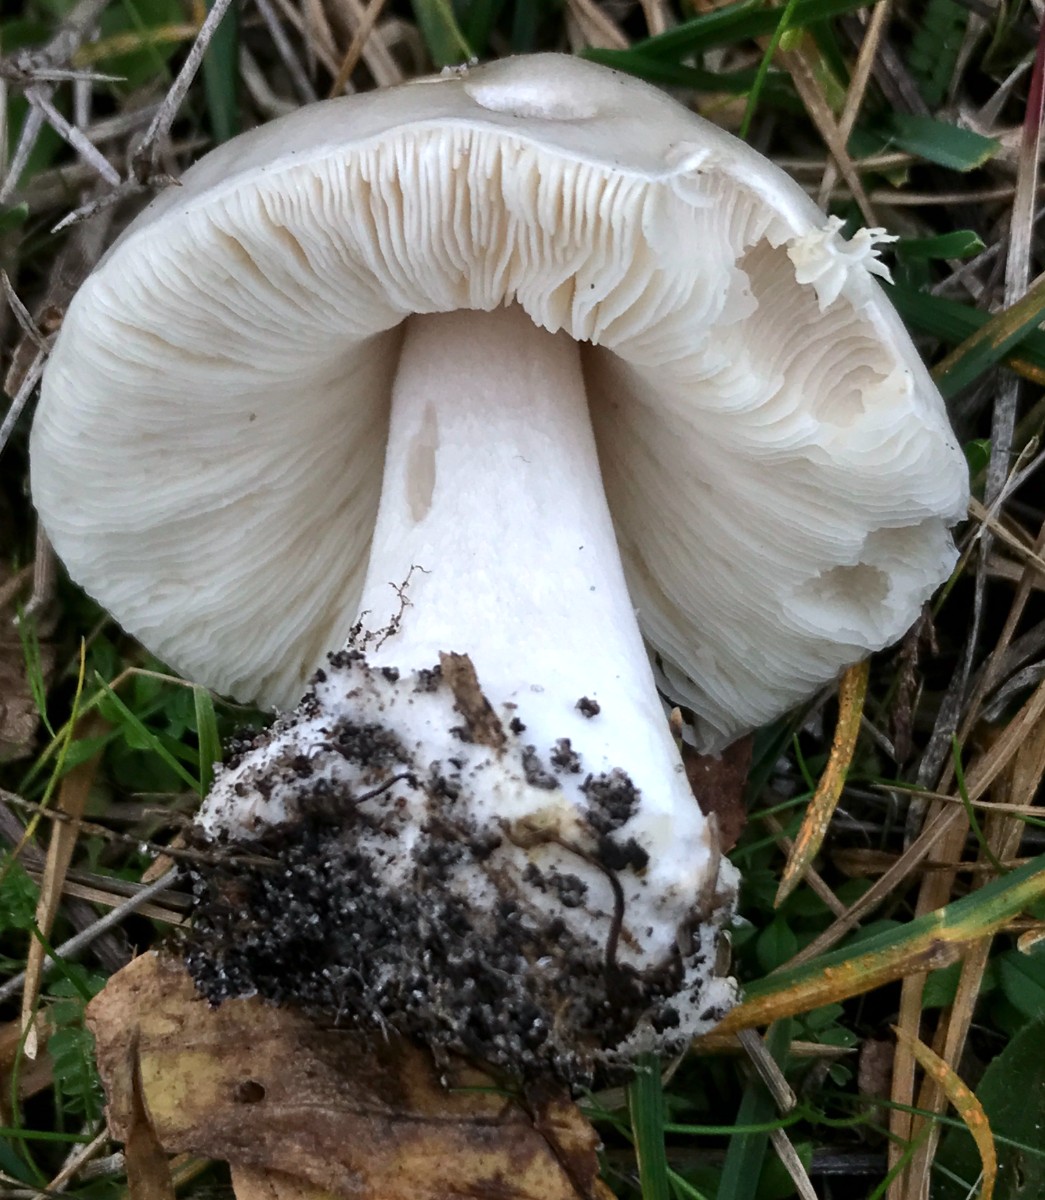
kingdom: Fungi
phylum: Basidiomycota
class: Agaricomycetes
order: Agaricales
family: Pluteaceae
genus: Volvopluteus
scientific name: Volvopluteus gloiocephalus
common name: høj posesvamp
